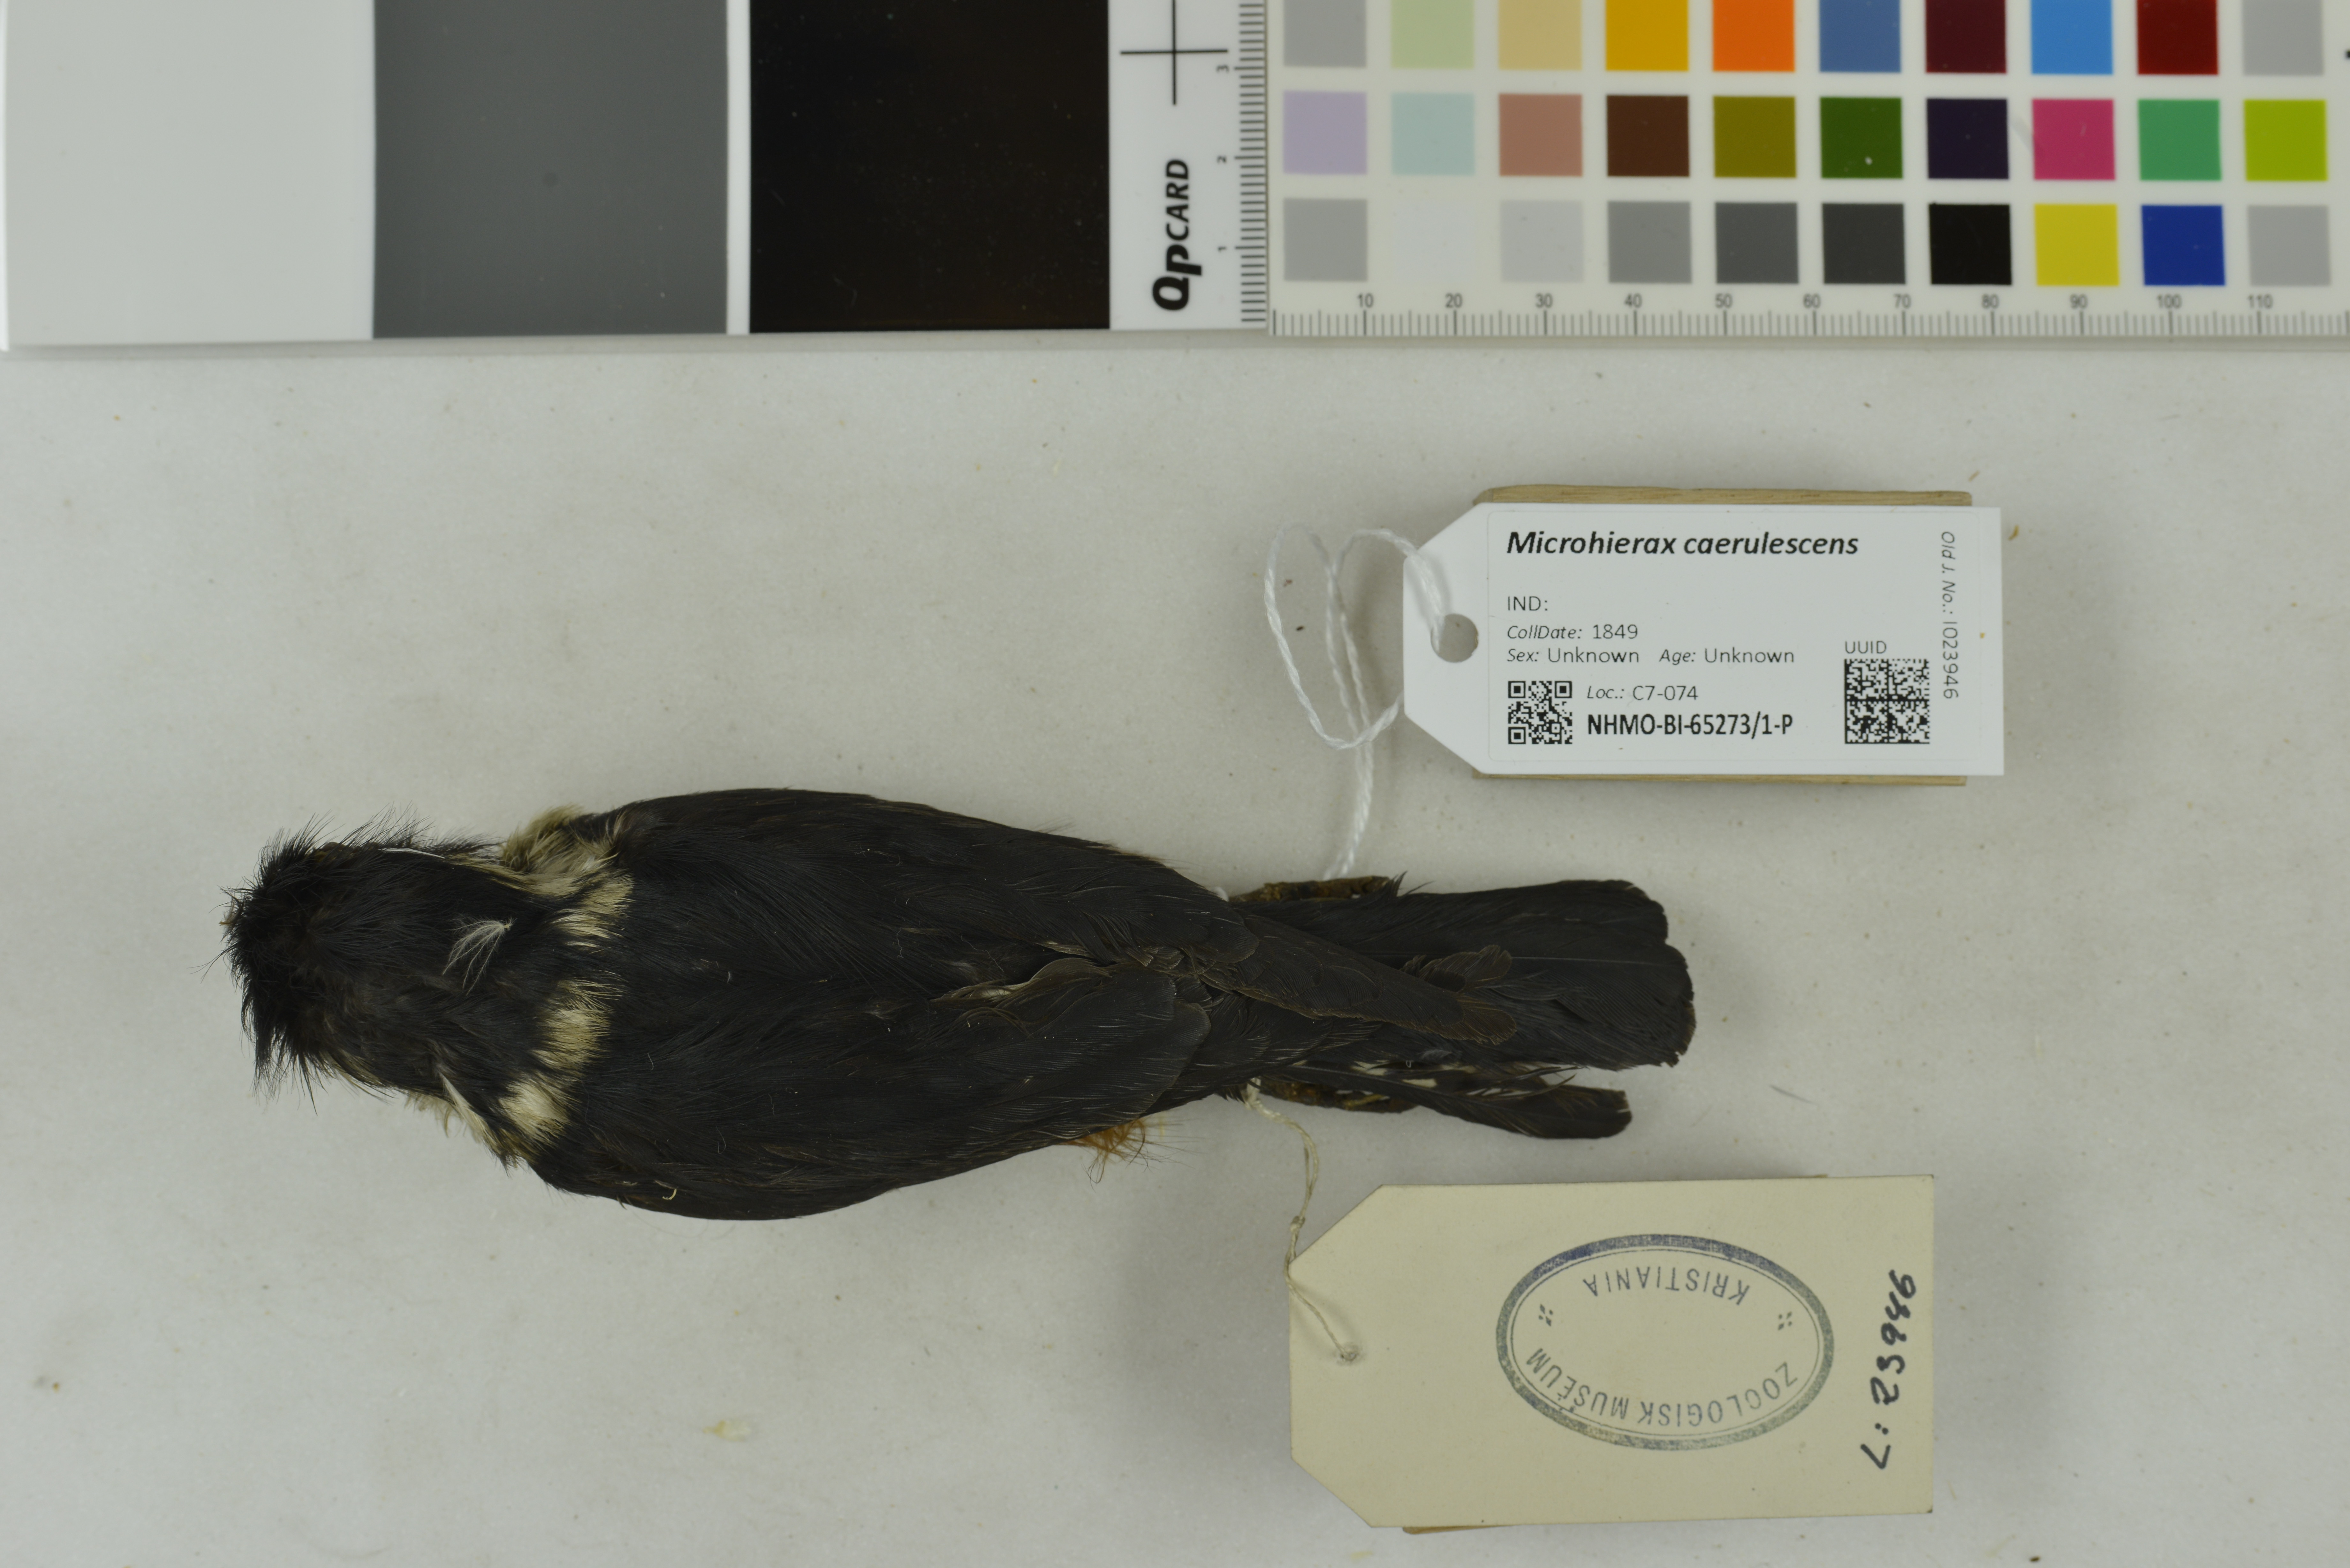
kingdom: Animalia
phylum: Chordata
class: Aves
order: Falconiformes
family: Falconidae
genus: Microhierax
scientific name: Microhierax caerulescens
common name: Collared falconet
